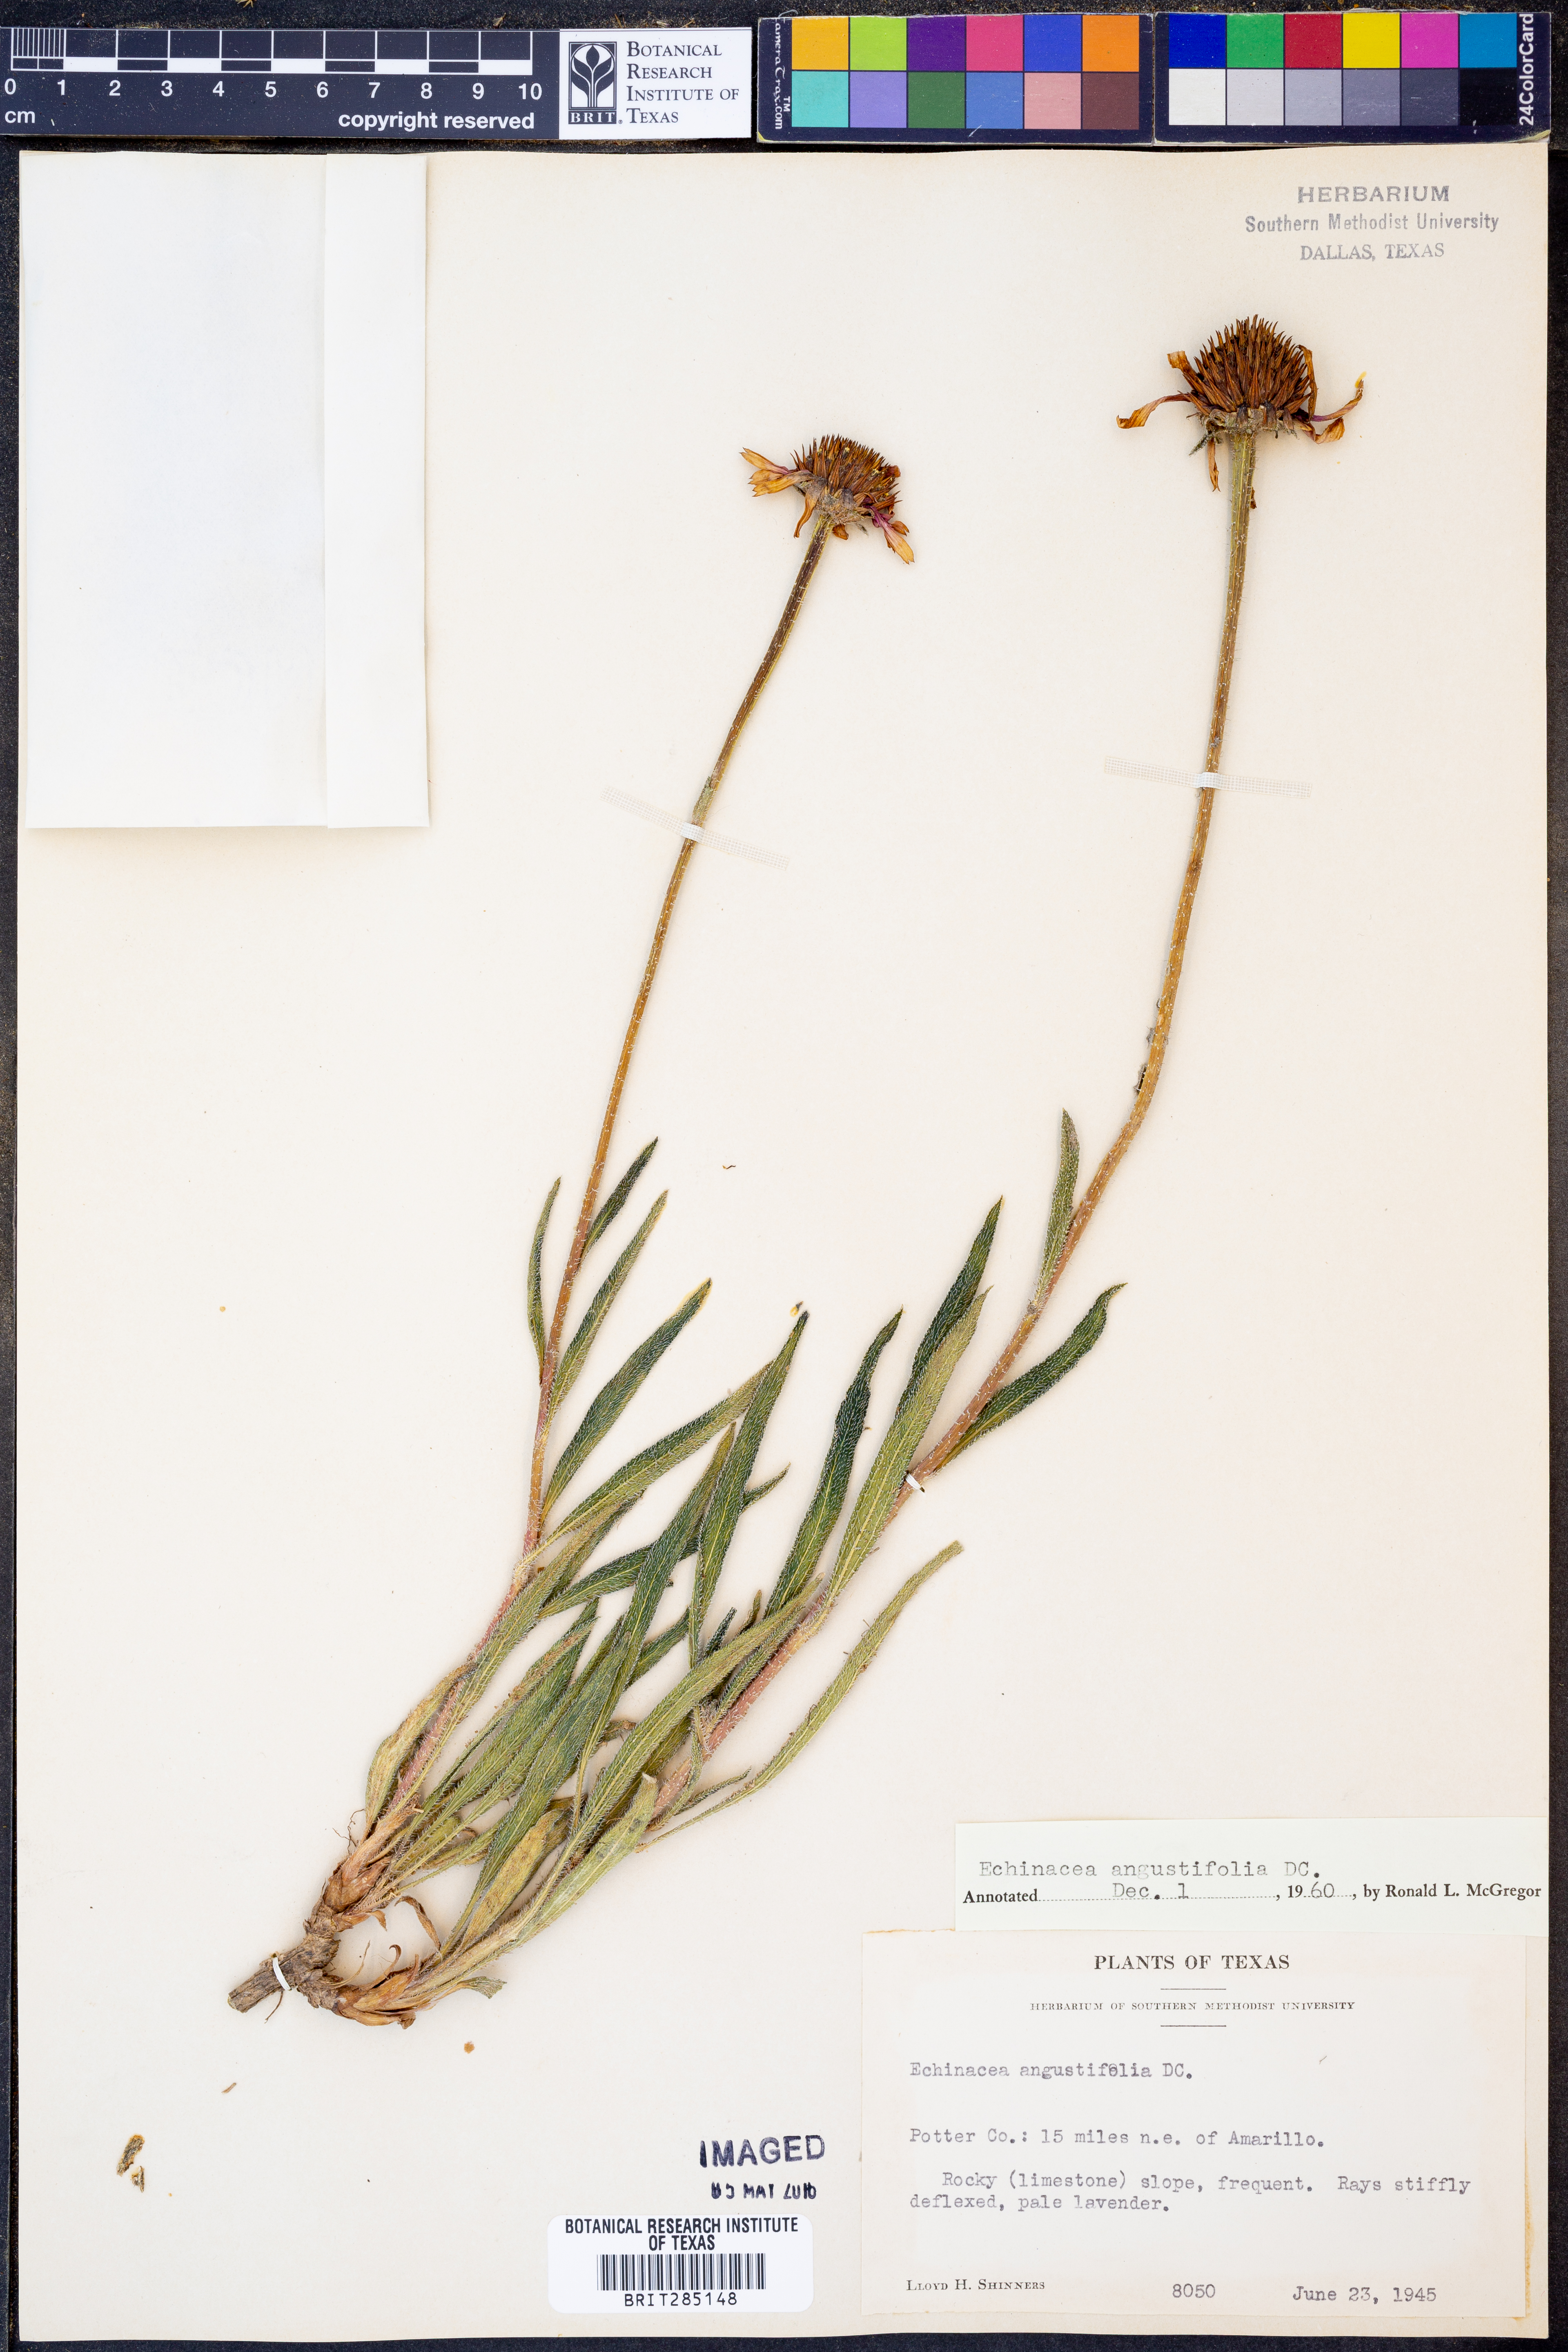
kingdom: Plantae
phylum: Tracheophyta
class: Magnoliopsida
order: Asterales
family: Asteraceae
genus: Echinacea
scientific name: Echinacea angustifolia
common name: Black-sampson echinacea
